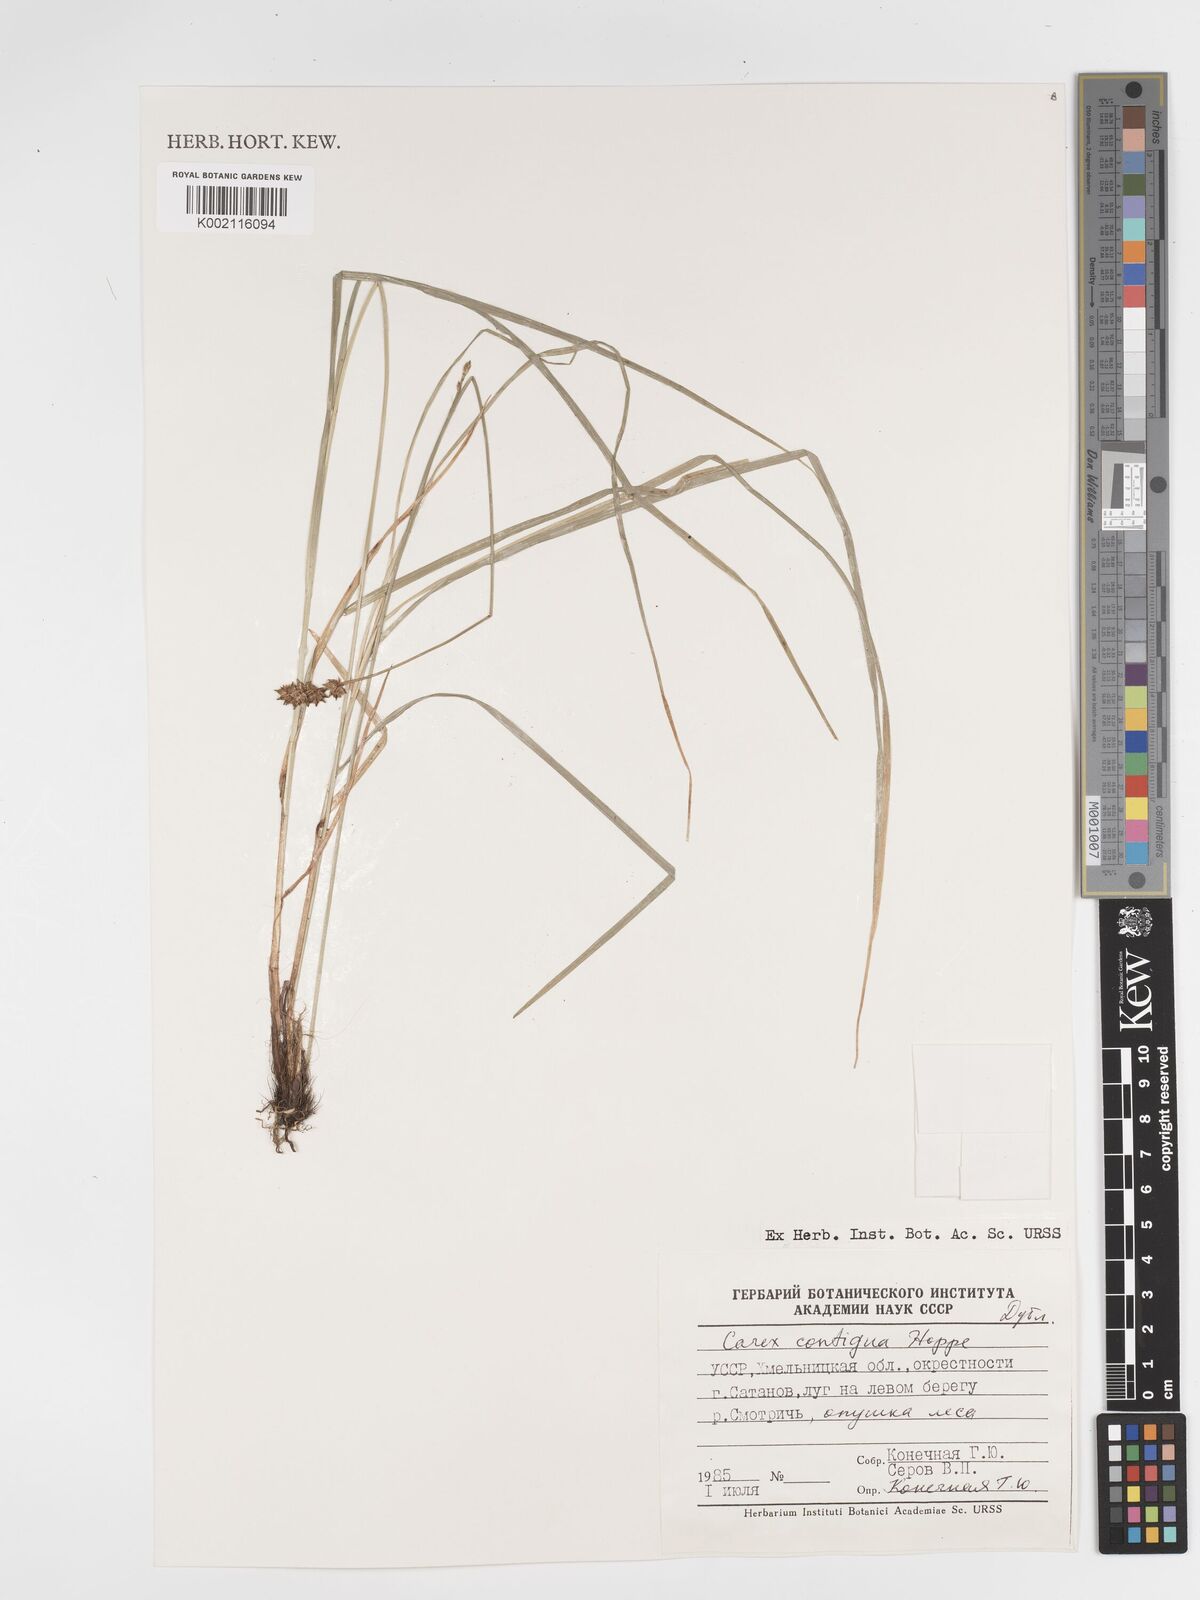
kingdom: Plantae
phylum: Tracheophyta
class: Liliopsida
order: Poales
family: Cyperaceae
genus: Carex
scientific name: Carex spicata
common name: Spiked sedge
